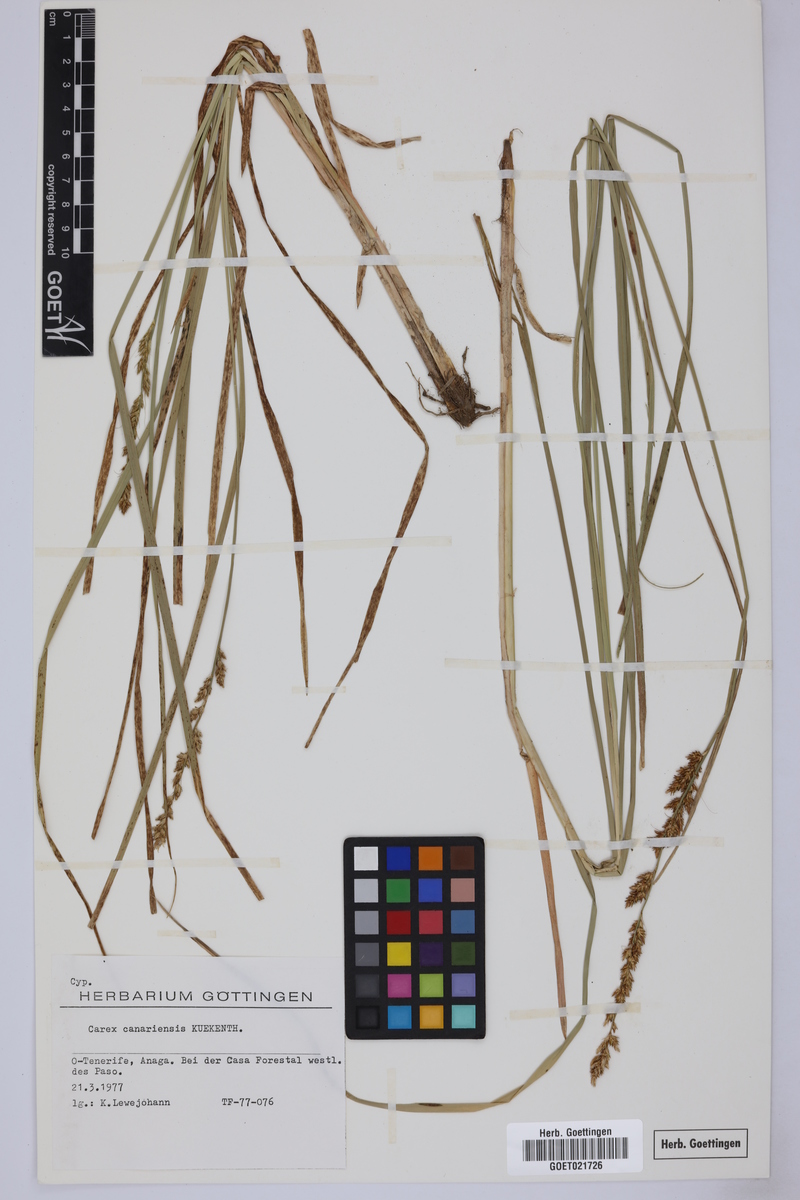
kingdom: Plantae
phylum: Tracheophyta
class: Liliopsida
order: Poales
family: Cyperaceae
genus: Carex
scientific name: Carex canariensis
